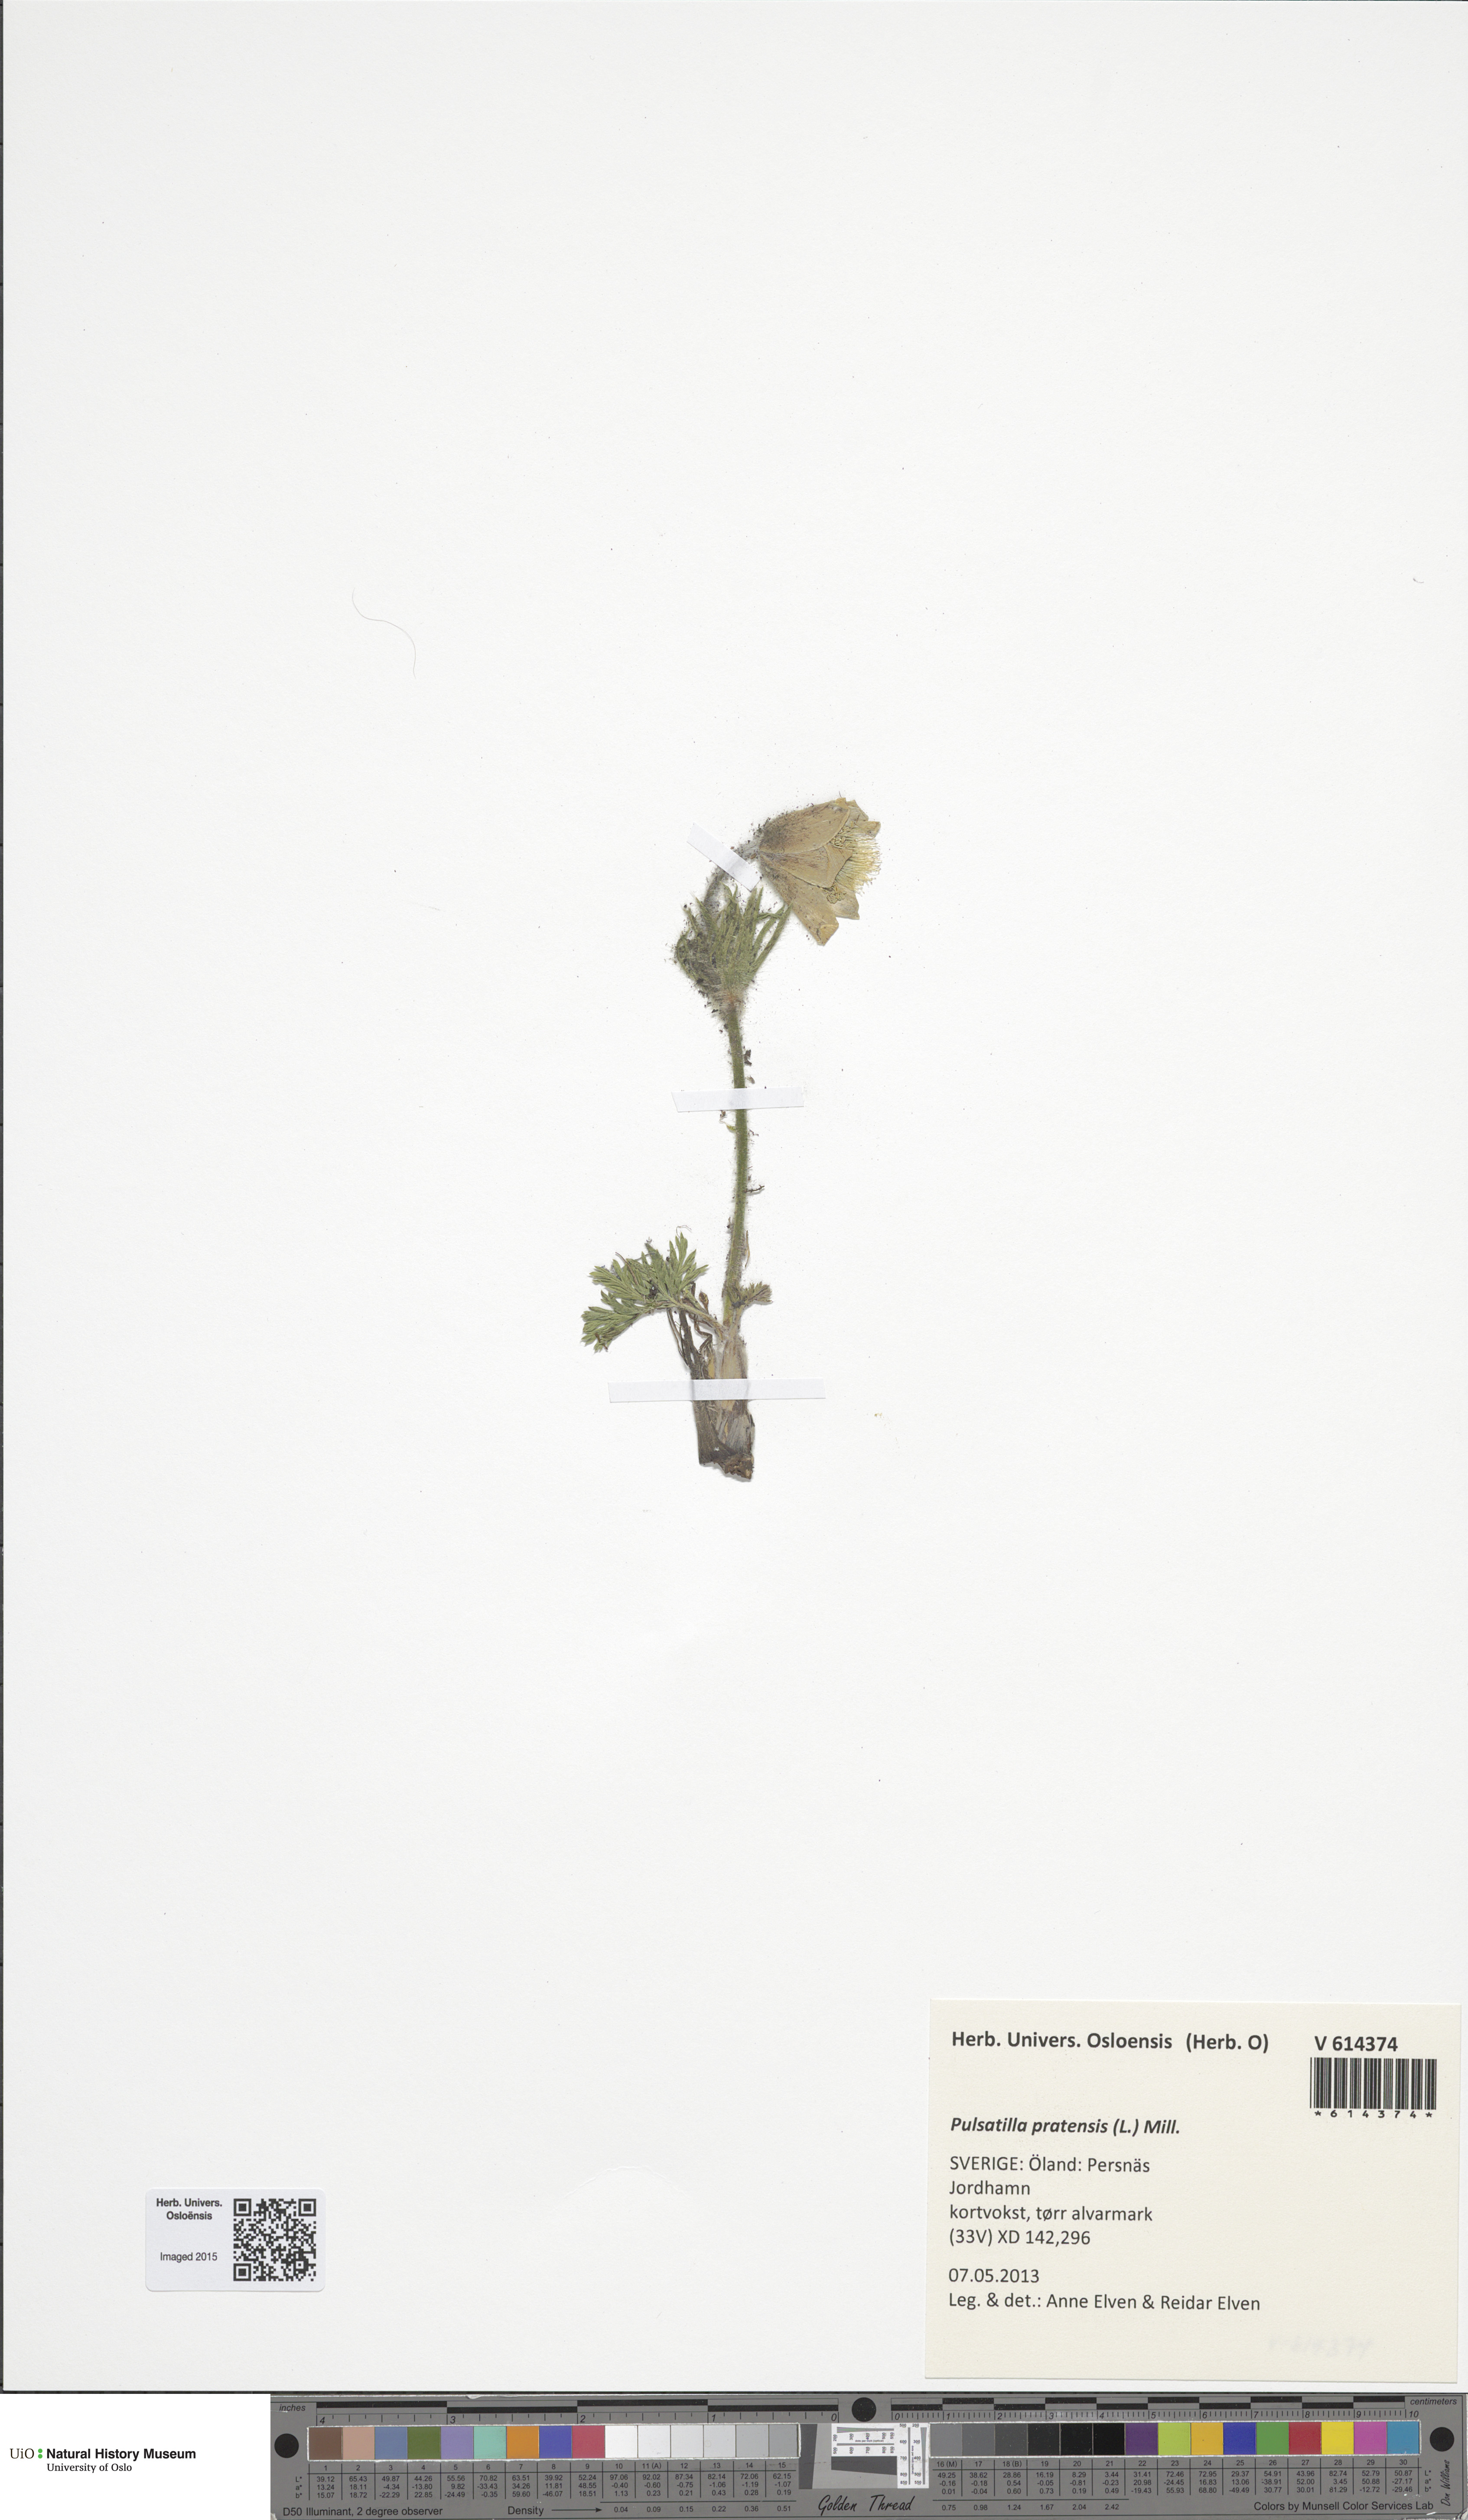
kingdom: Plantae
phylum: Tracheophyta
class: Magnoliopsida
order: Ranunculales
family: Ranunculaceae
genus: Pulsatilla
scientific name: Pulsatilla pratensis
